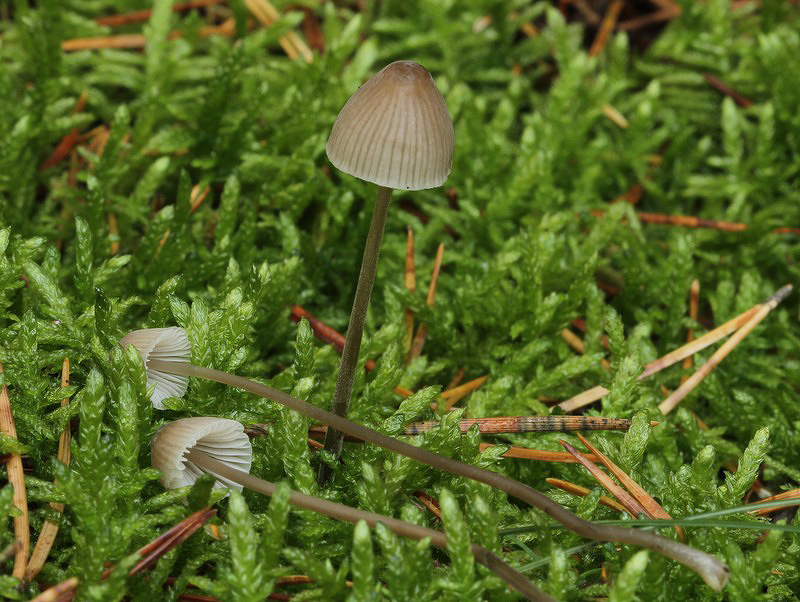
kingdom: Fungi
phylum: Basidiomycota
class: Agaricomycetes
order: Agaricales
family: Mycenaceae
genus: Mycena
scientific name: Mycena leptocephala
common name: klor-huesvamp
